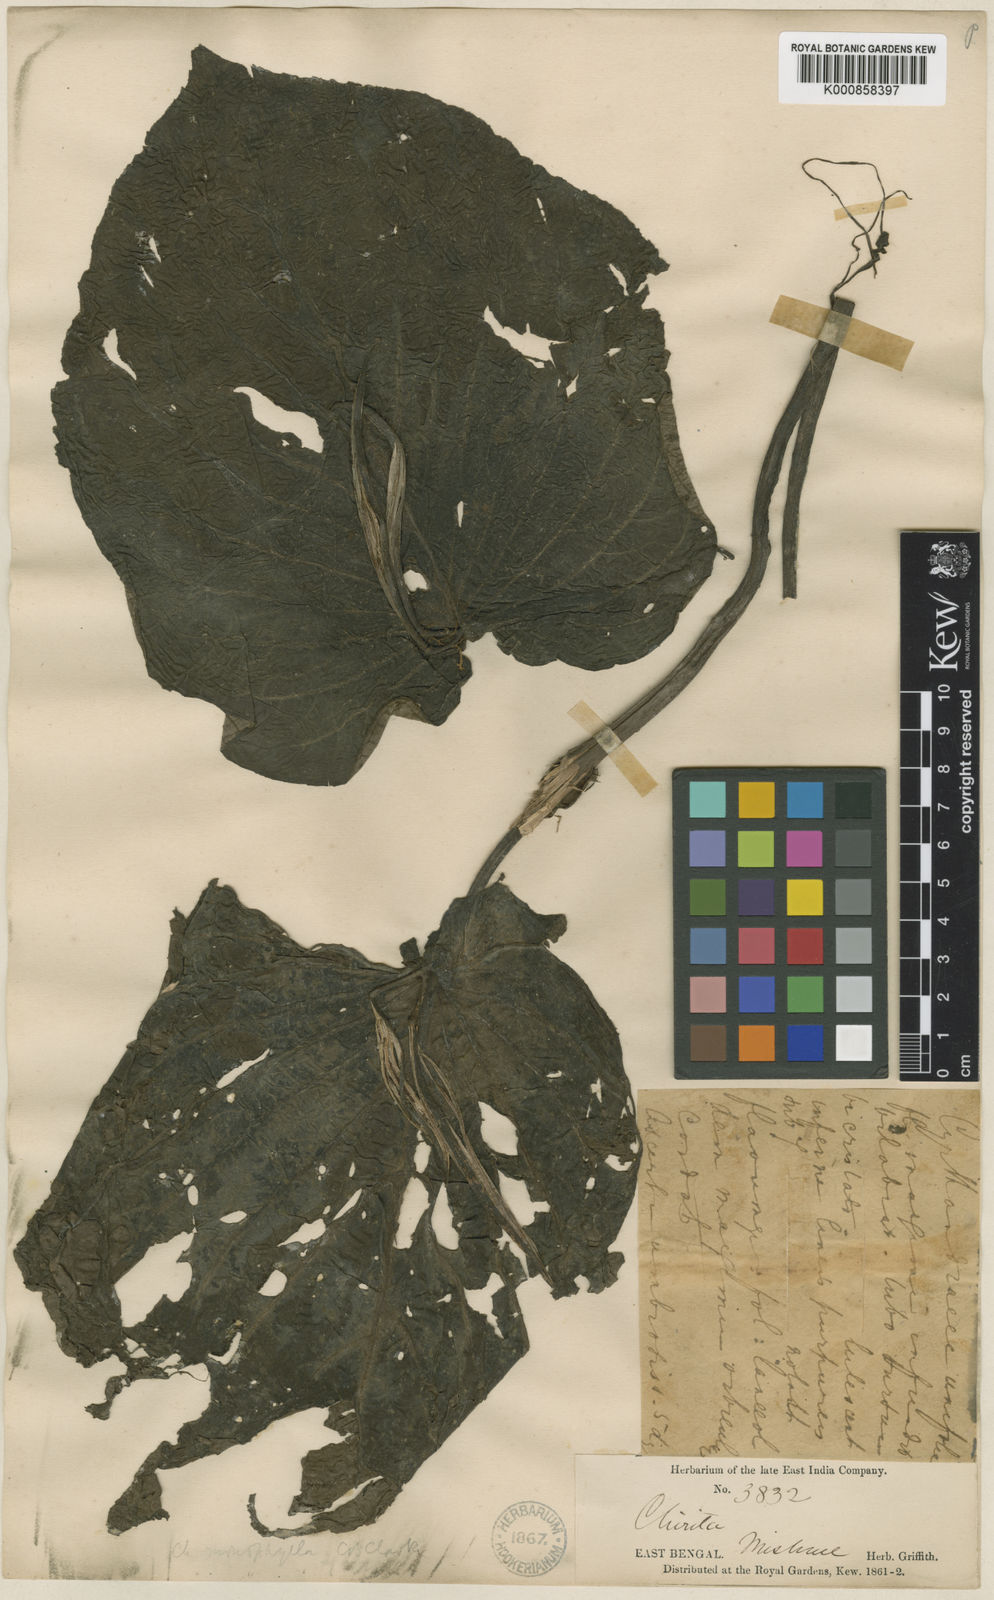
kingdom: Plantae
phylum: Tracheophyta
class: Magnoliopsida
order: Lamiales
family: Gesneriaceae
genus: Henckelia
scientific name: Henckelia monophylla
